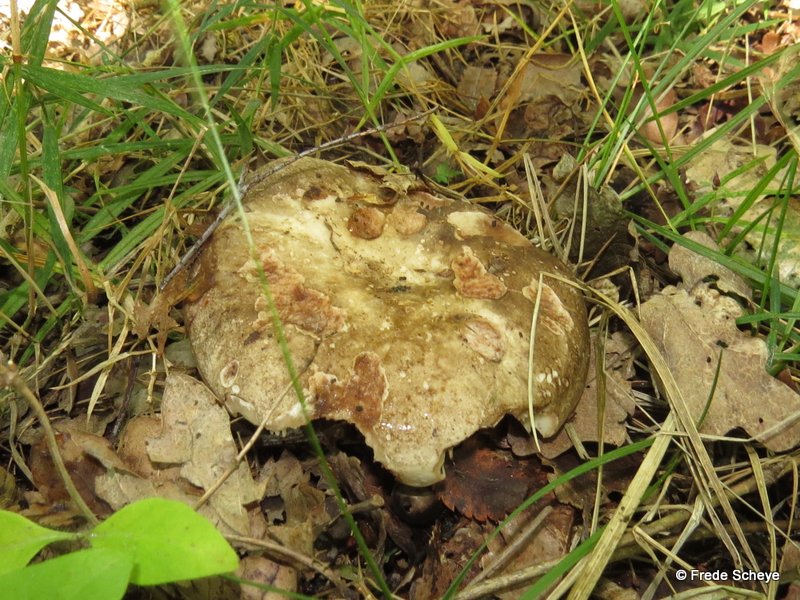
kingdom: Fungi
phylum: Basidiomycota
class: Agaricomycetes
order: Russulales
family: Russulaceae
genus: Russula
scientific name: Russula adusta
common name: sværtende skørhat
